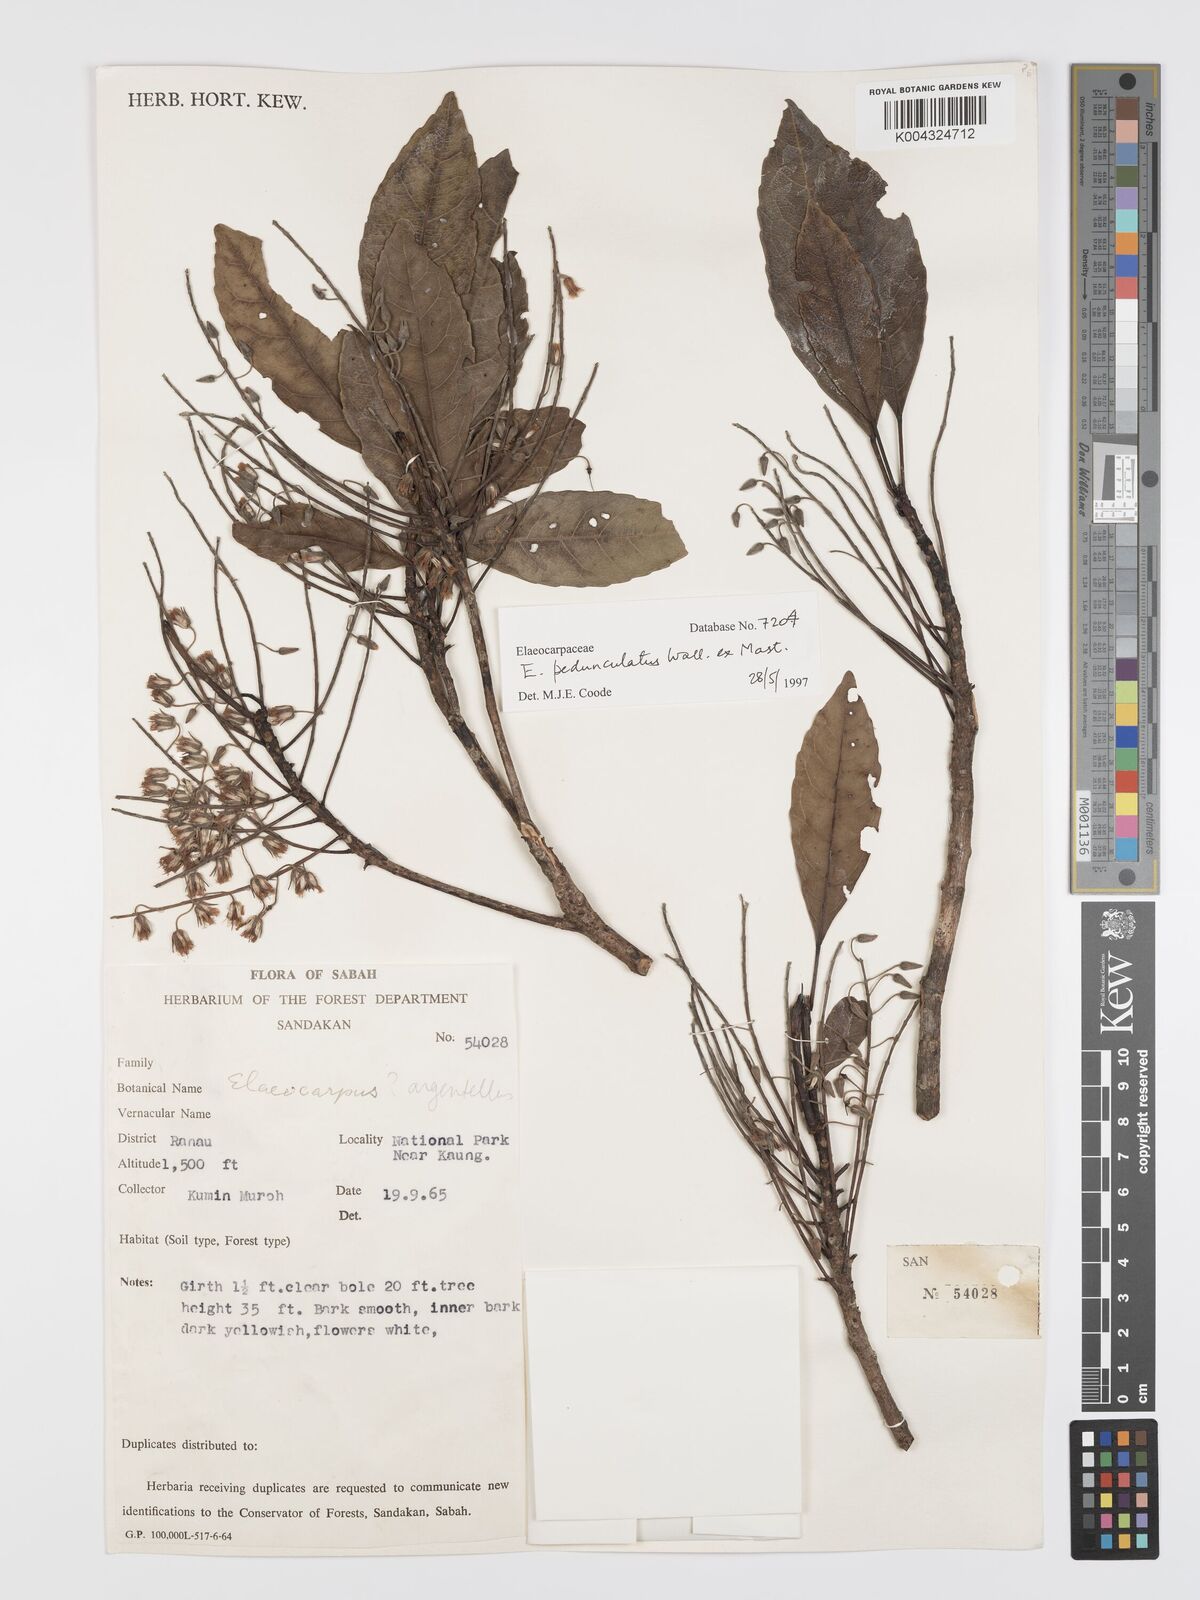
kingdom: Plantae
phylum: Tracheophyta
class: Magnoliopsida
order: Oxalidales
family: Elaeocarpaceae
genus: Elaeocarpus
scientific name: Elaeocarpus pedunculatus
